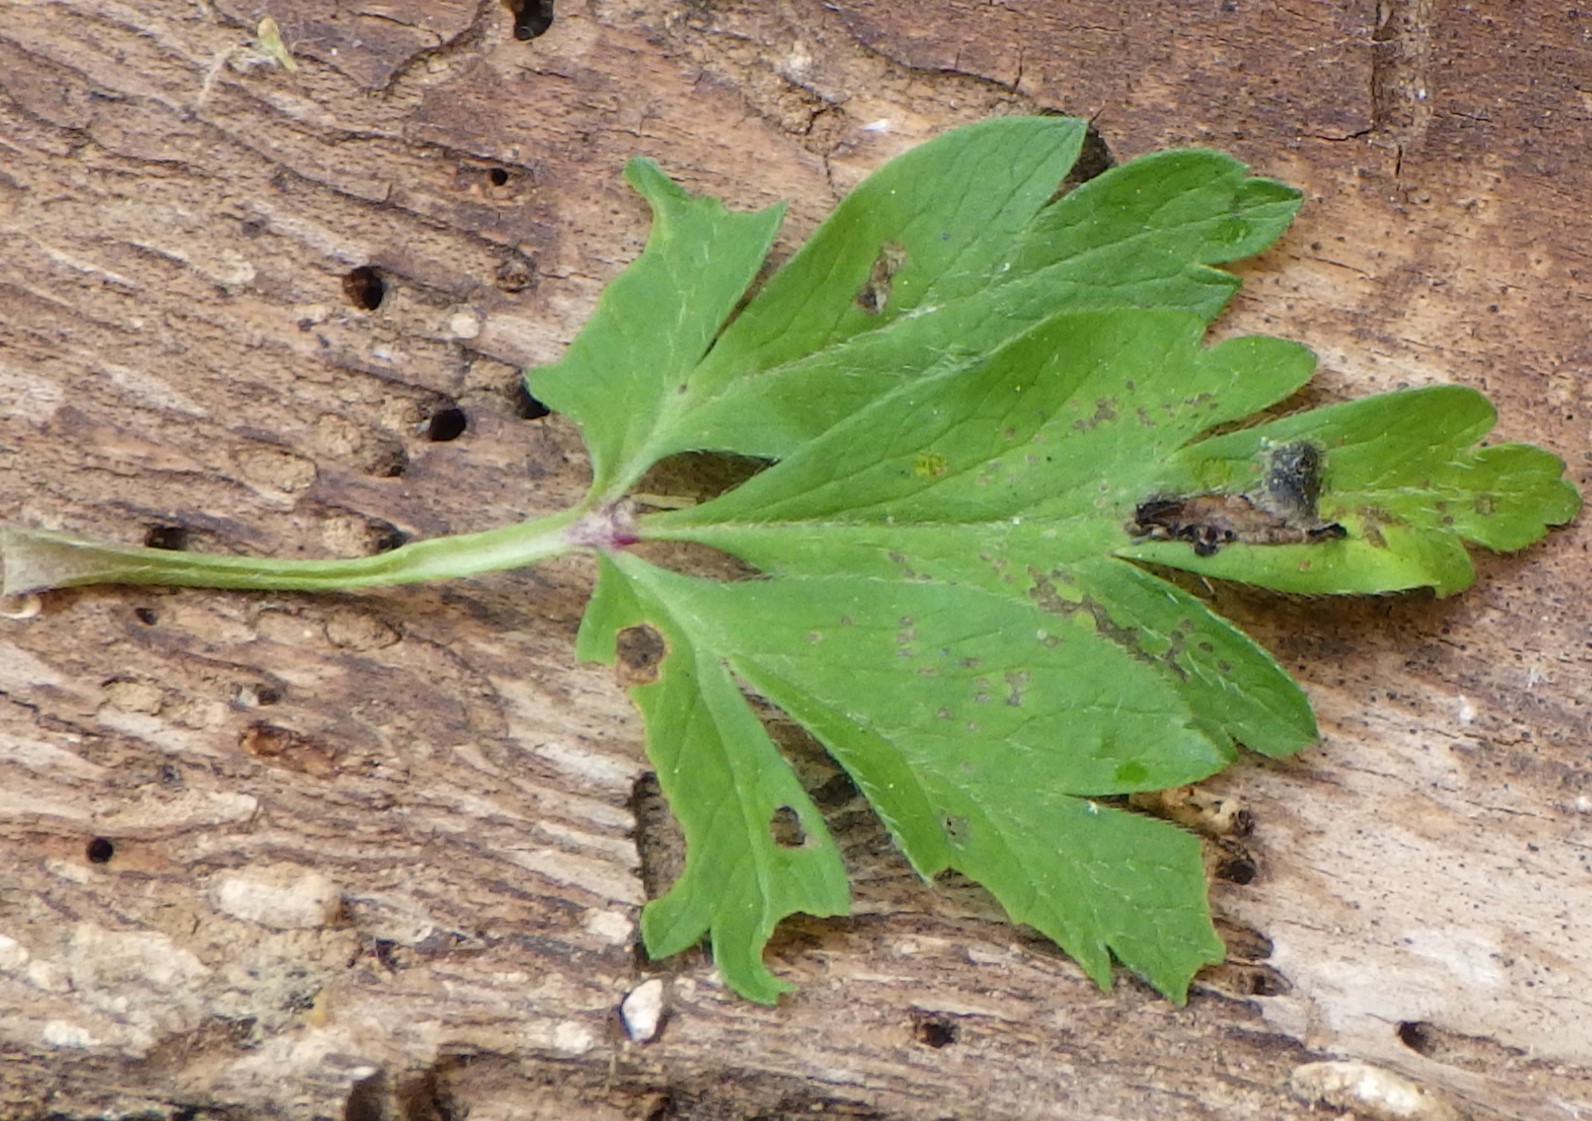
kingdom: Fungi
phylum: Basidiomycota
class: Ustilaginomycetes
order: Urocystidales
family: Urocystidaceae
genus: Urocystis
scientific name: Urocystis anemones
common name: anemone-brand
